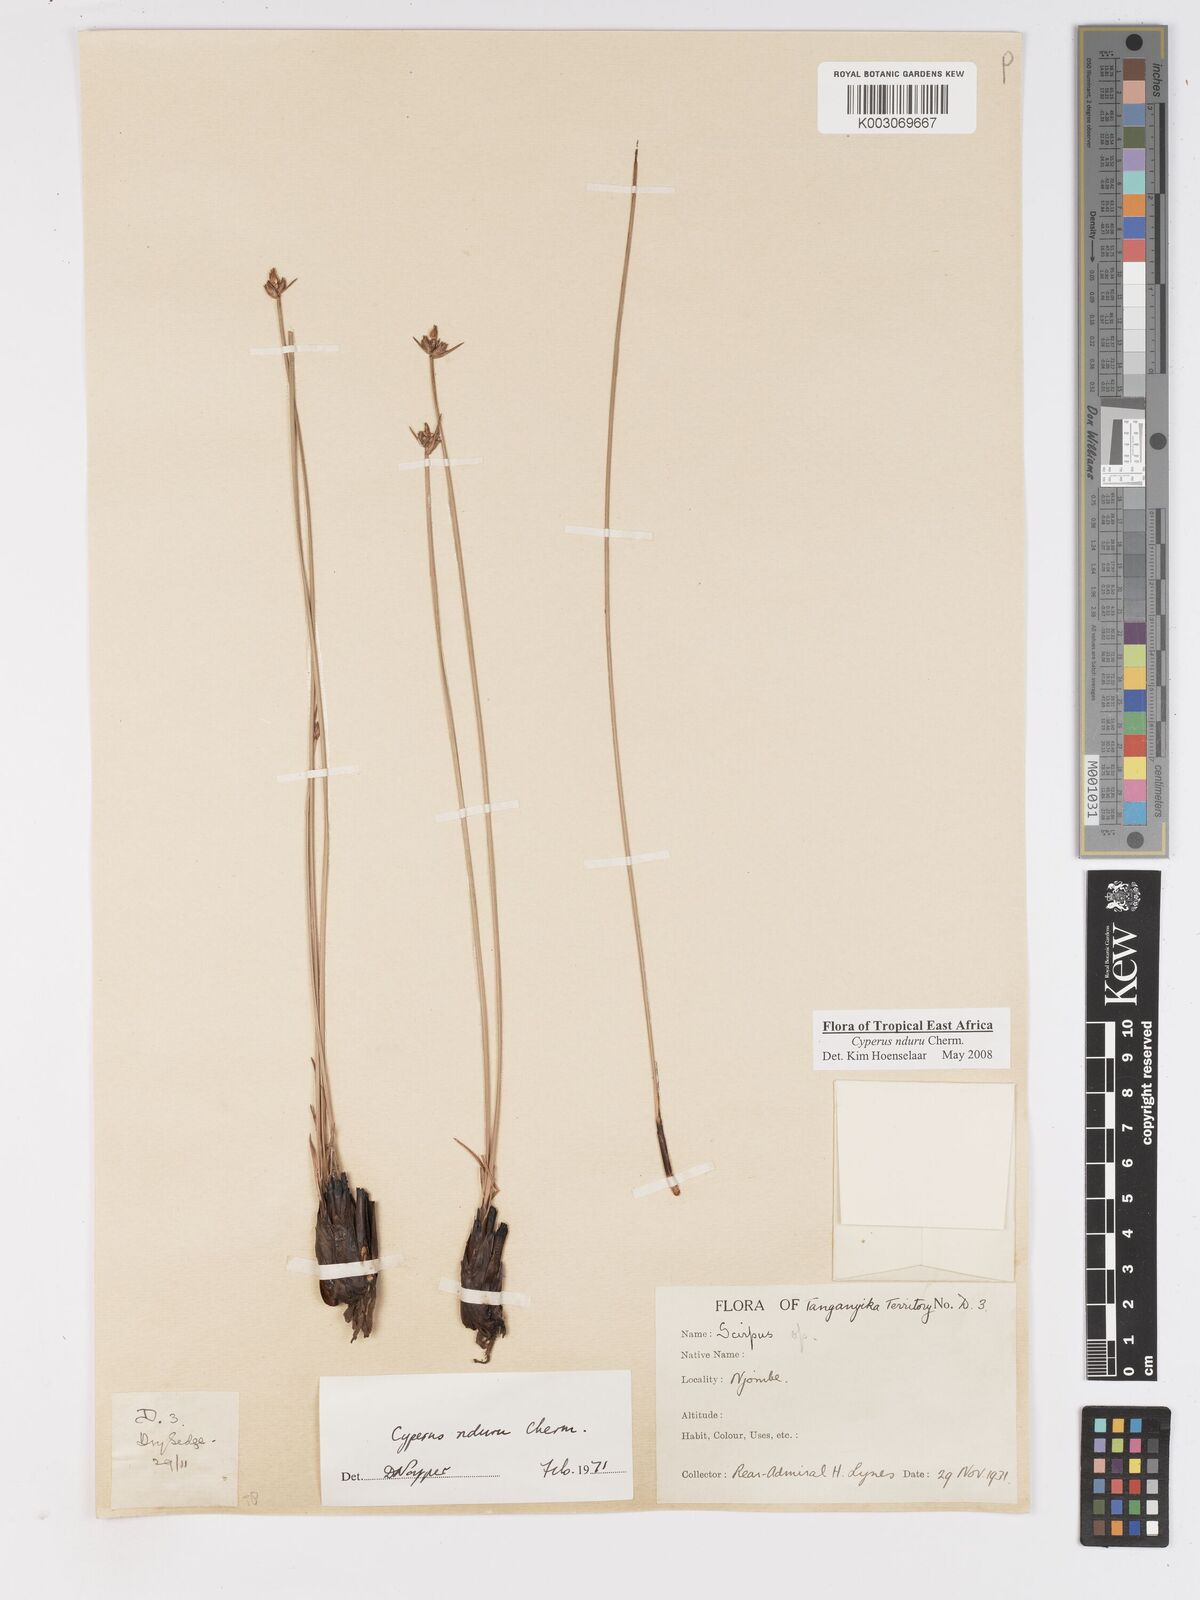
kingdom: Plantae
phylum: Tracheophyta
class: Liliopsida
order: Poales
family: Cyperaceae
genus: Cyperus
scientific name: Cyperus nduru
